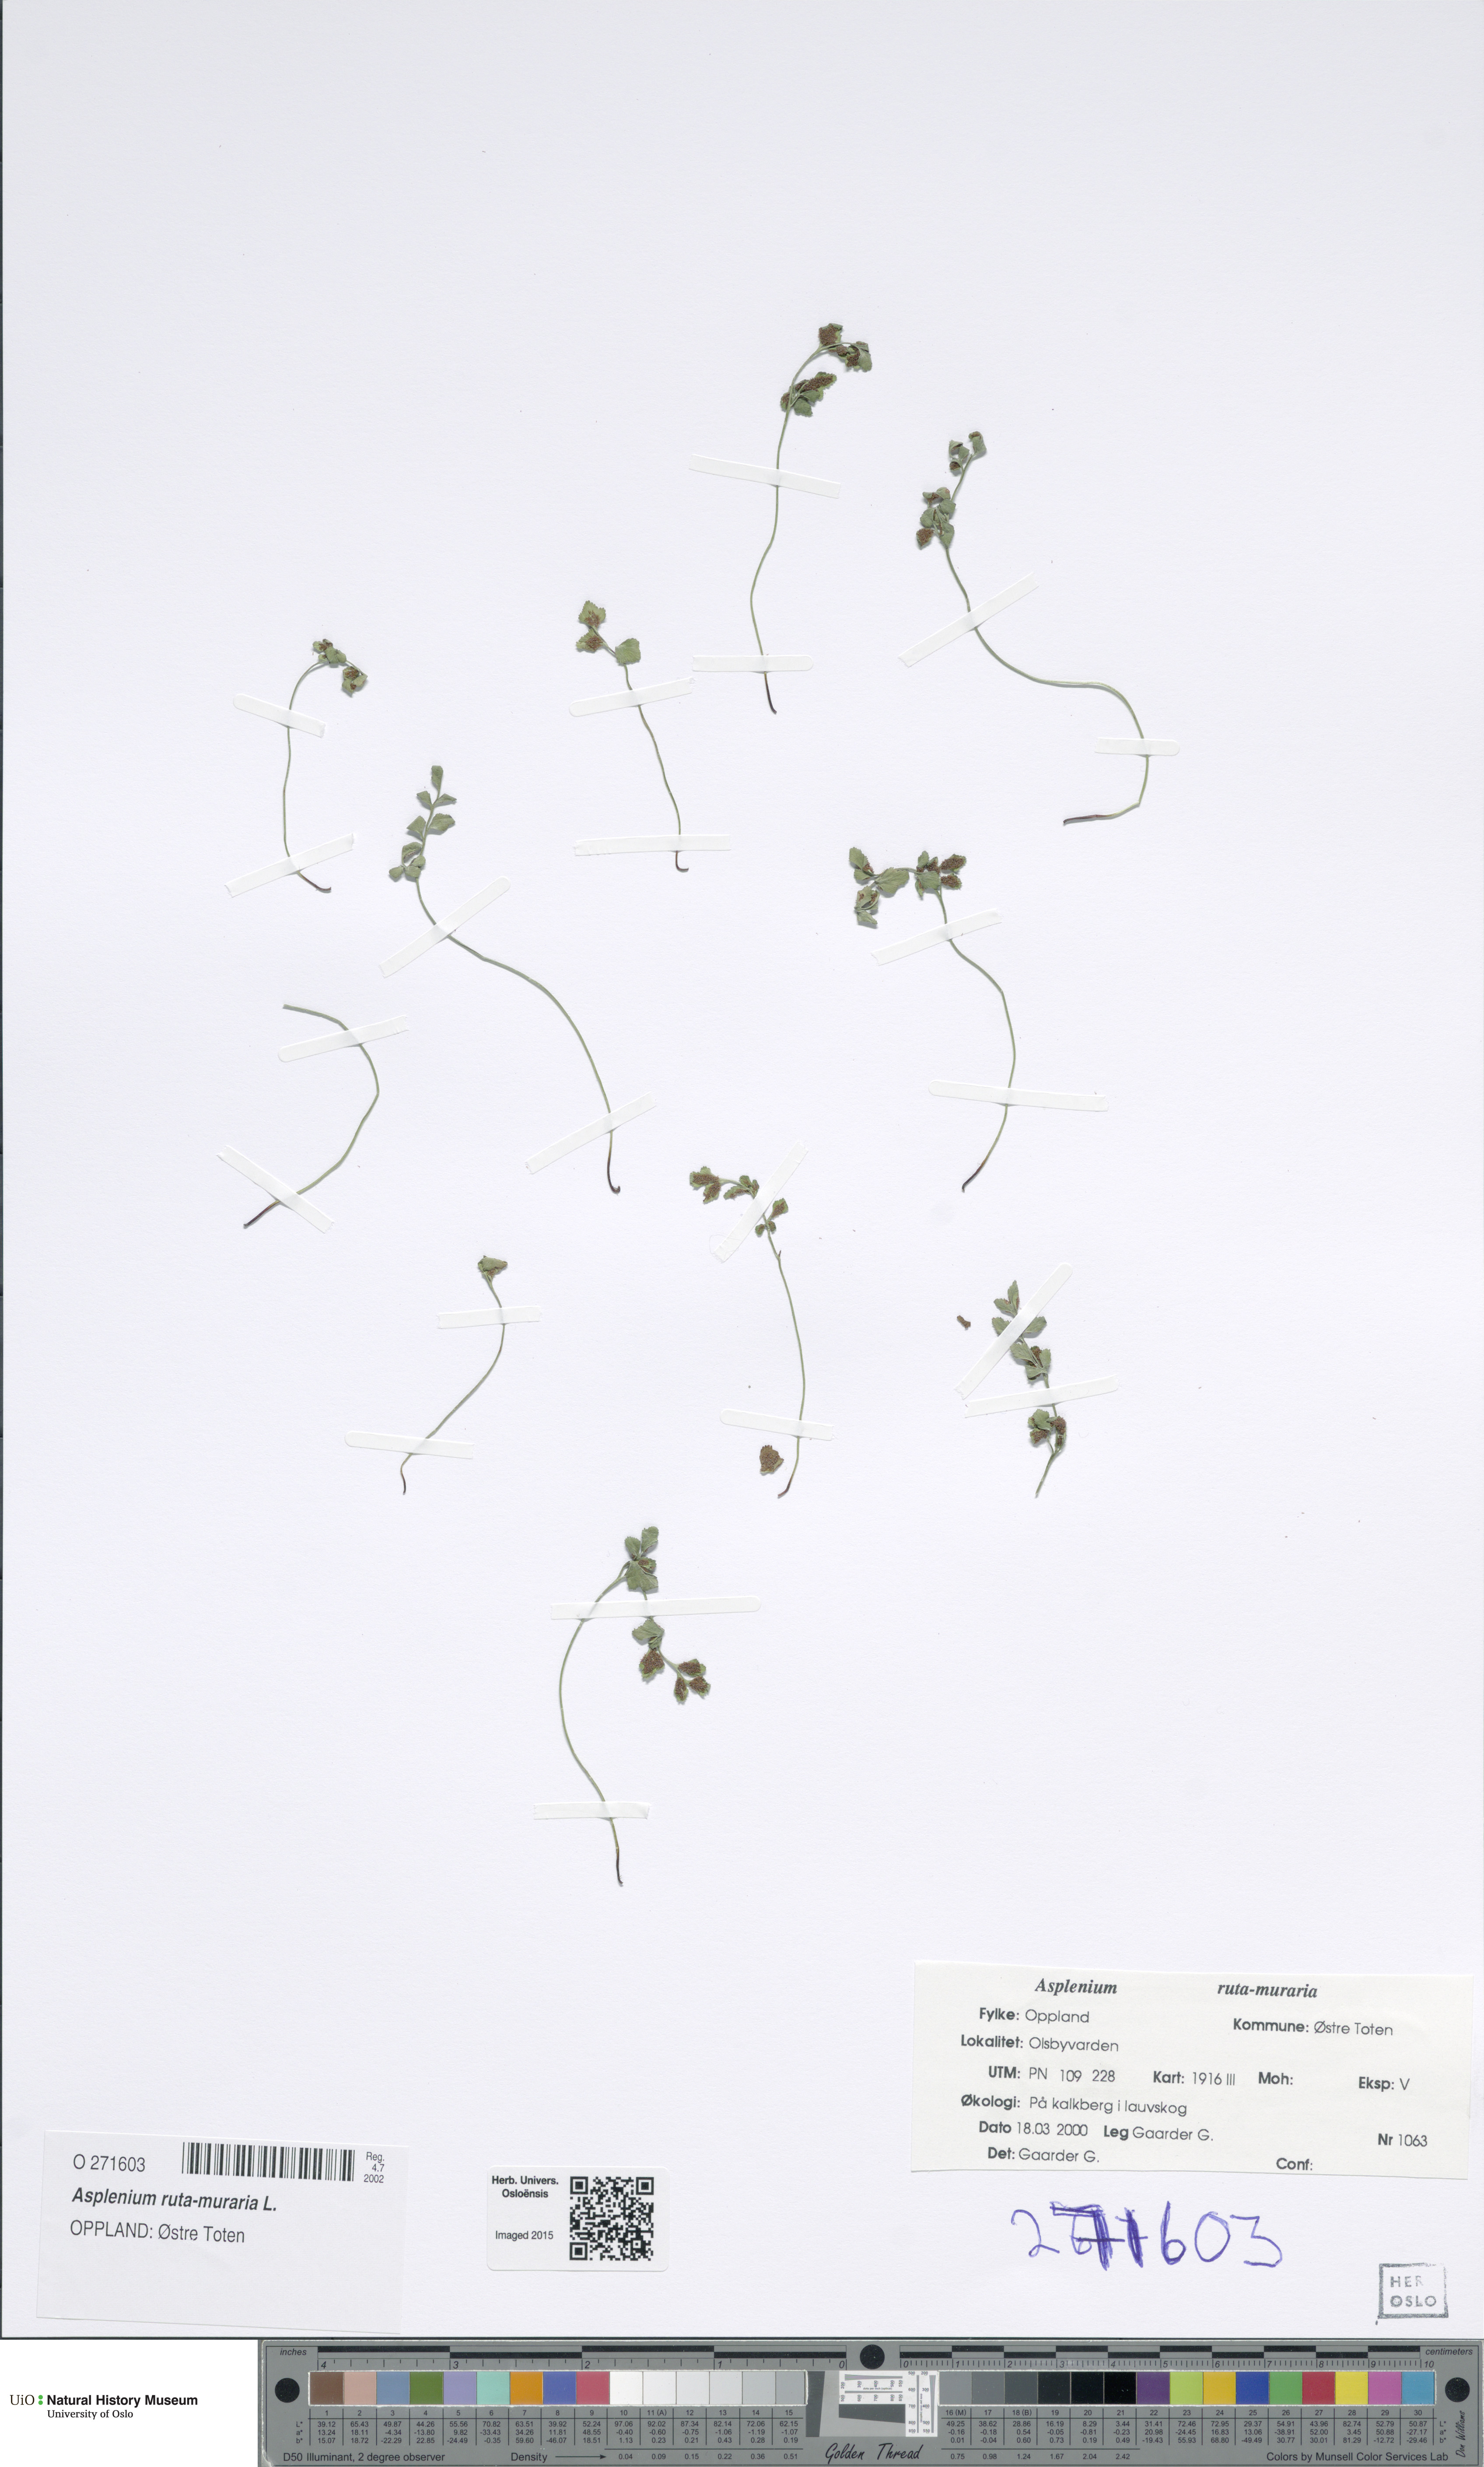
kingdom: Plantae
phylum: Tracheophyta
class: Polypodiopsida
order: Polypodiales
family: Aspleniaceae
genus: Asplenium
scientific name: Asplenium ruta-muraria
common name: Wall-rue
